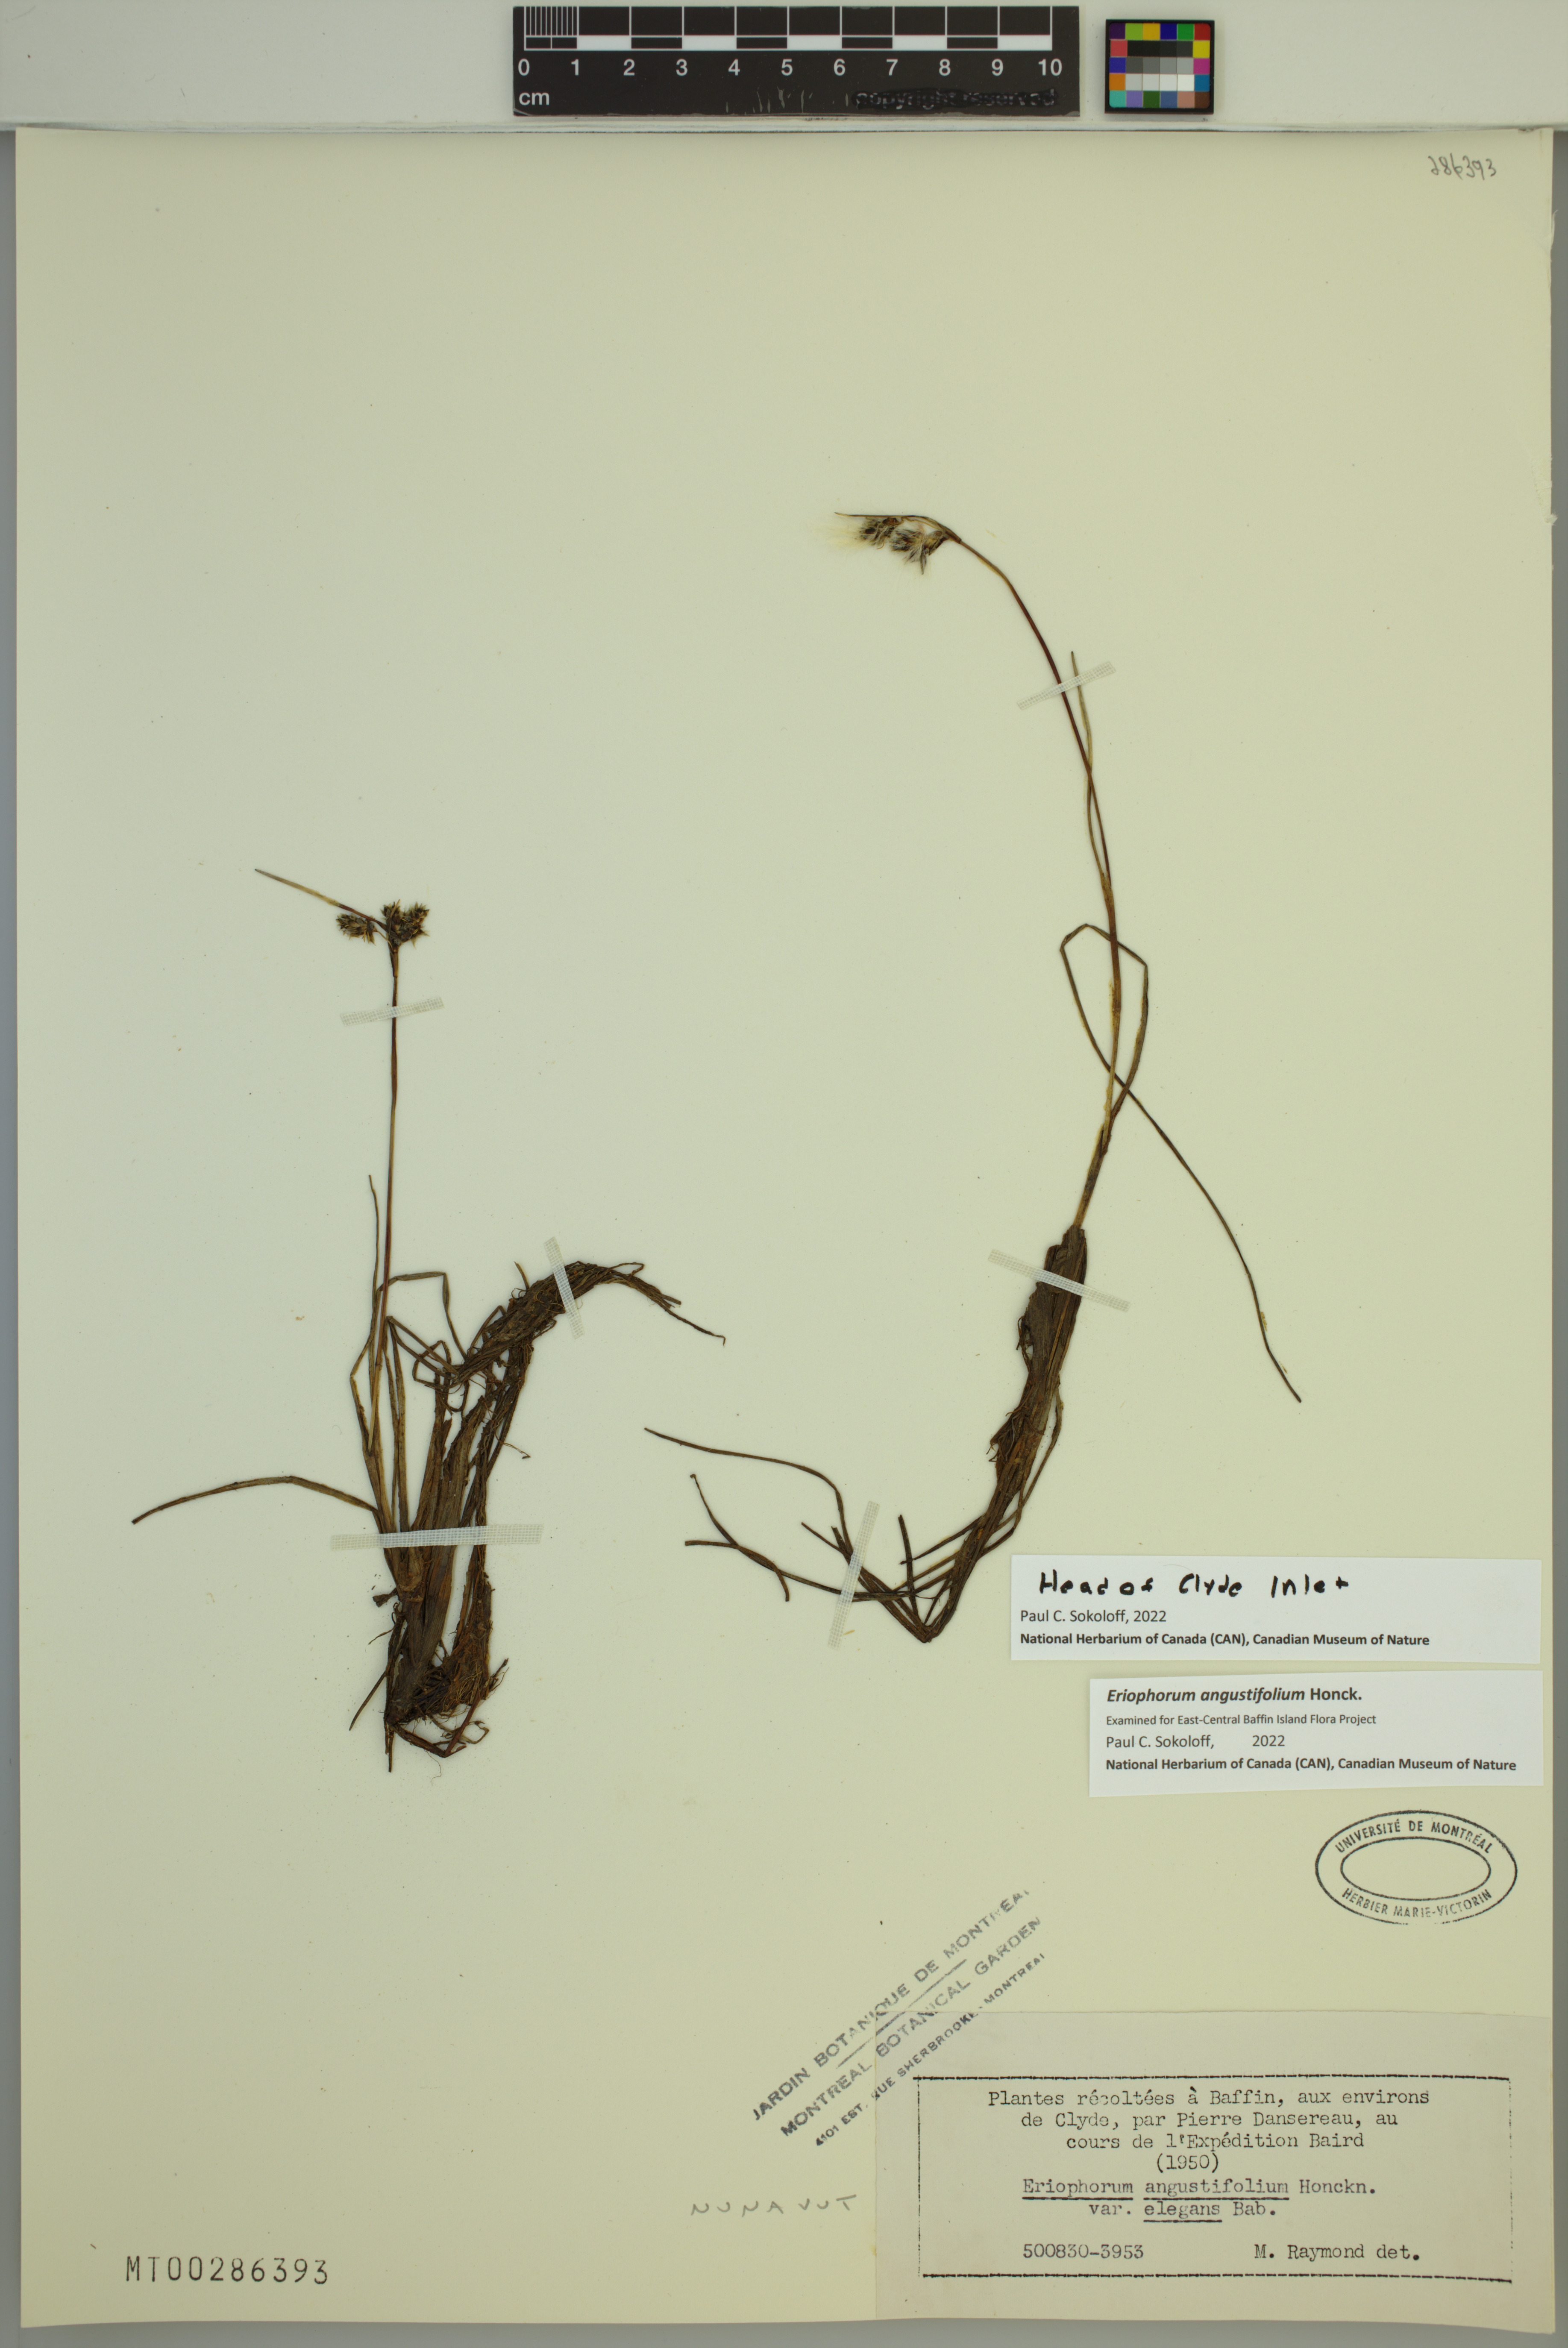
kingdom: Plantae
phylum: Tracheophyta
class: Liliopsida
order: Poales
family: Cyperaceae
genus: Eriophorum
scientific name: Eriophorum angustifolium
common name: Common cottongrass
